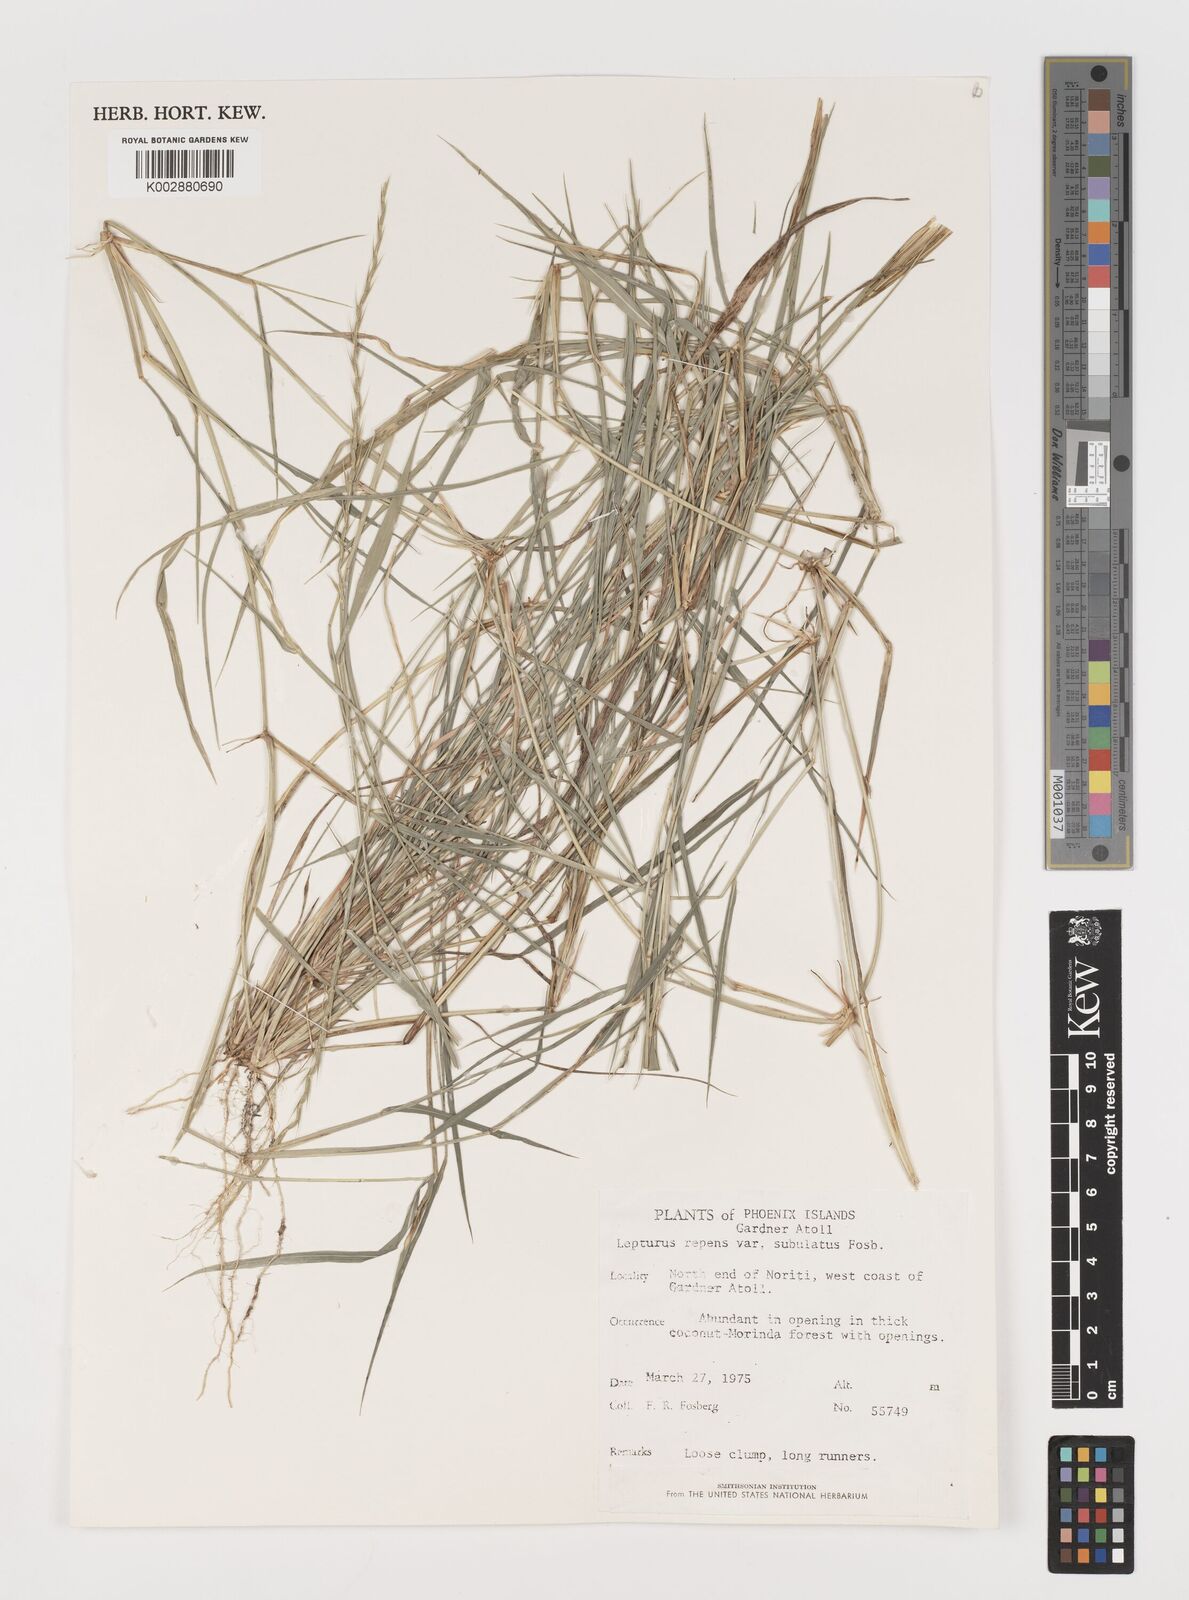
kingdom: Plantae
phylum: Tracheophyta
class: Liliopsida
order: Poales
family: Poaceae
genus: Lepturus
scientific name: Lepturus repens
